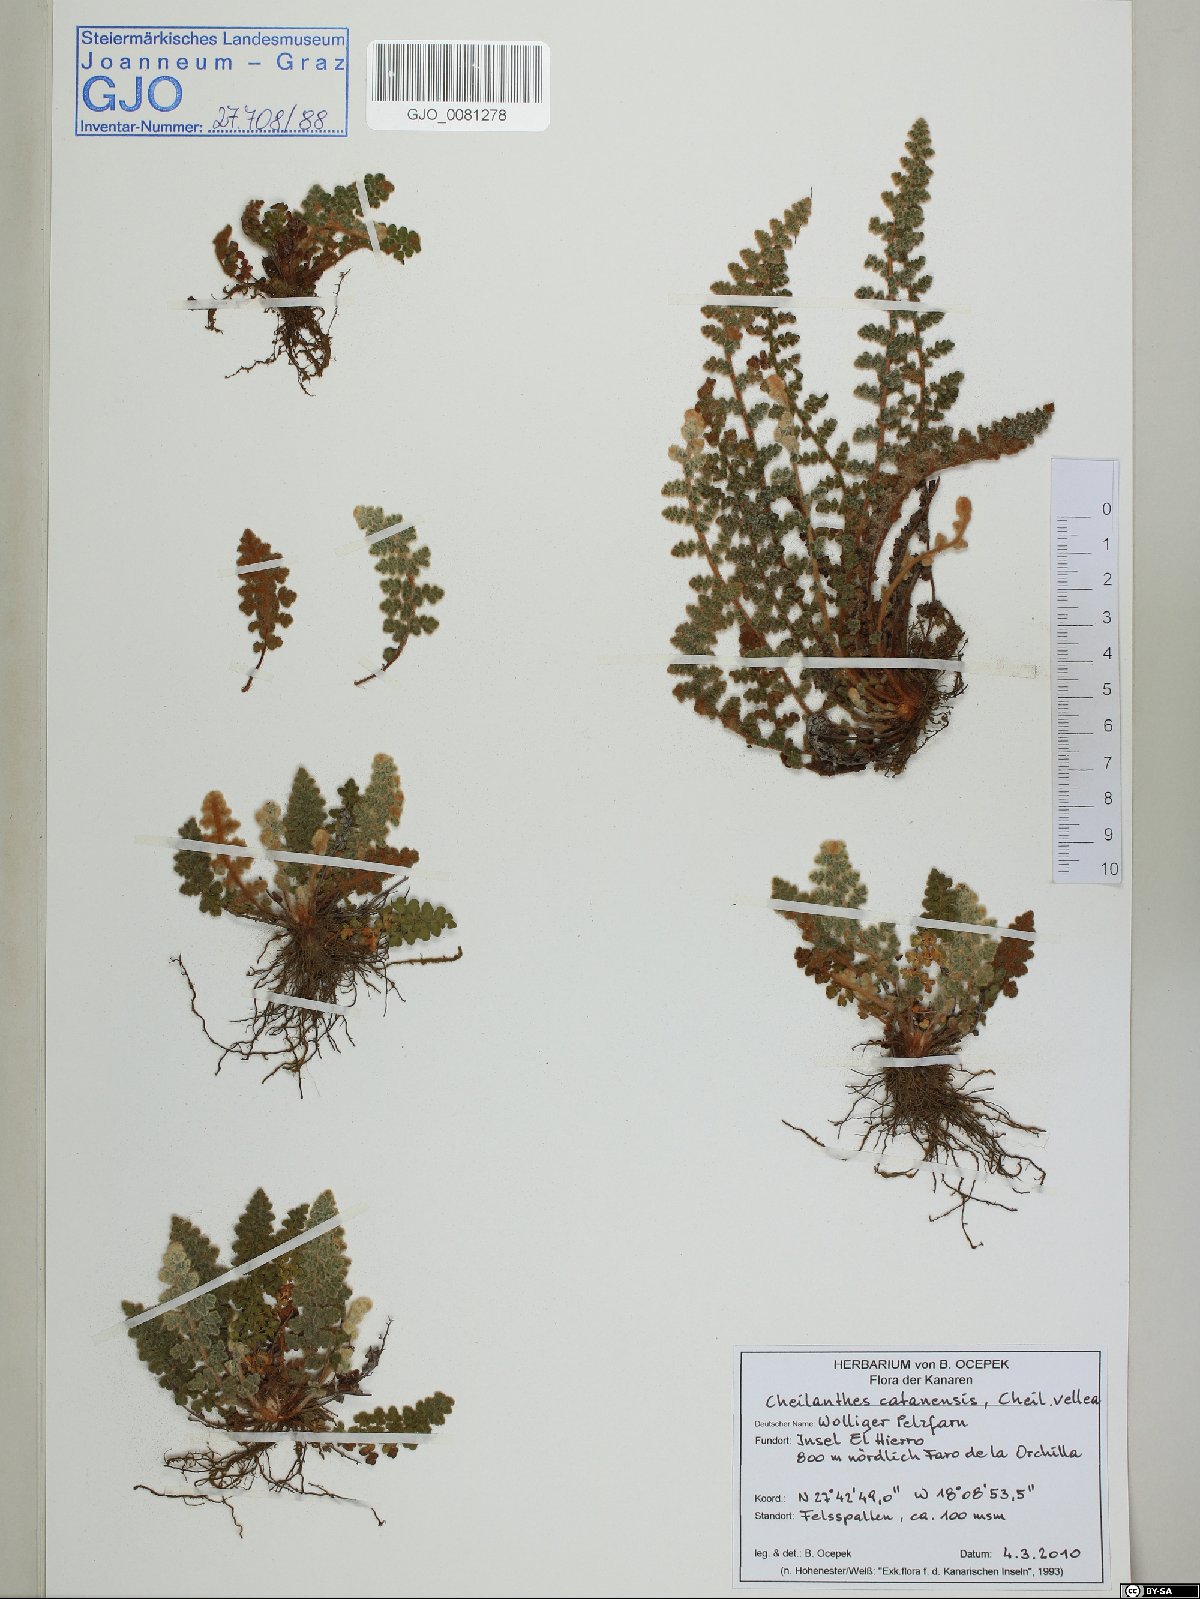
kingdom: Plantae
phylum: Tracheophyta
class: Polypodiopsida
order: Polypodiales
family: Pteridaceae
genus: Cosentinia
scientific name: Cosentinia vellea
